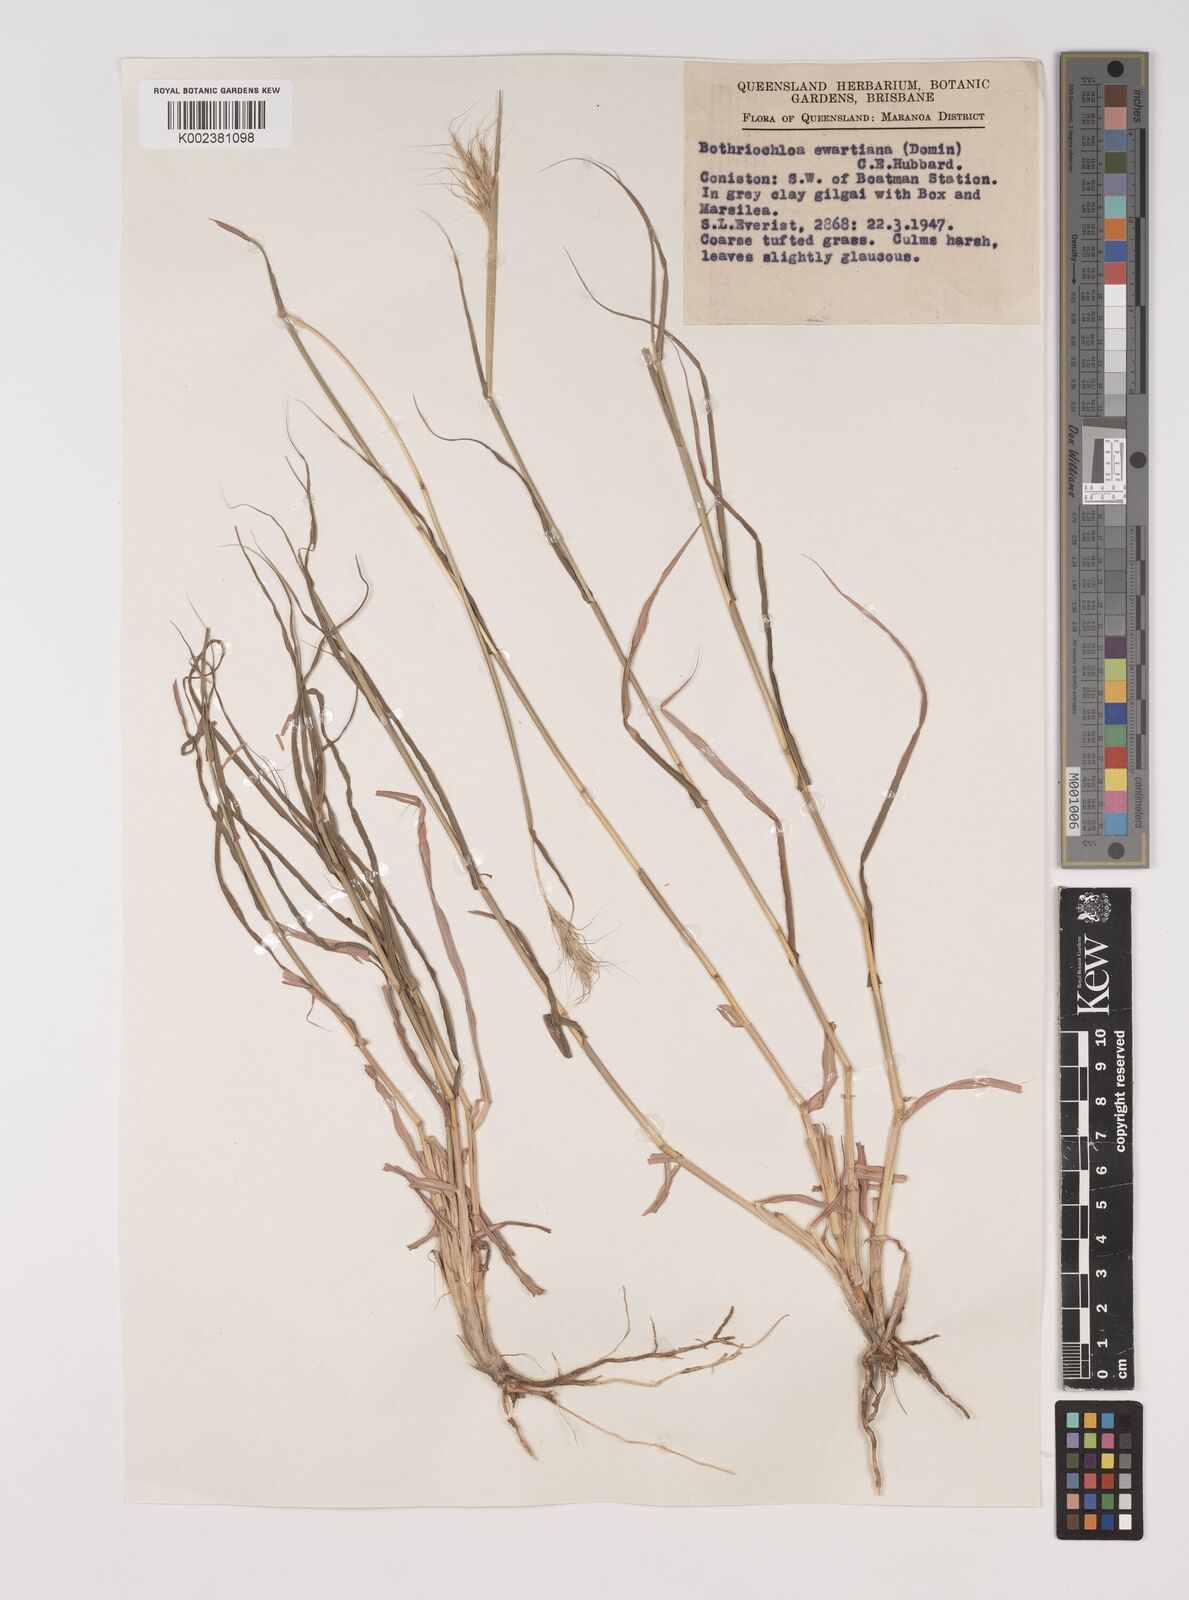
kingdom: Plantae
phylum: Tracheophyta
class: Liliopsida
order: Poales
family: Poaceae
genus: Bothriochloa
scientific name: Bothriochloa ewartiana
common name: Desert-bluegrass
